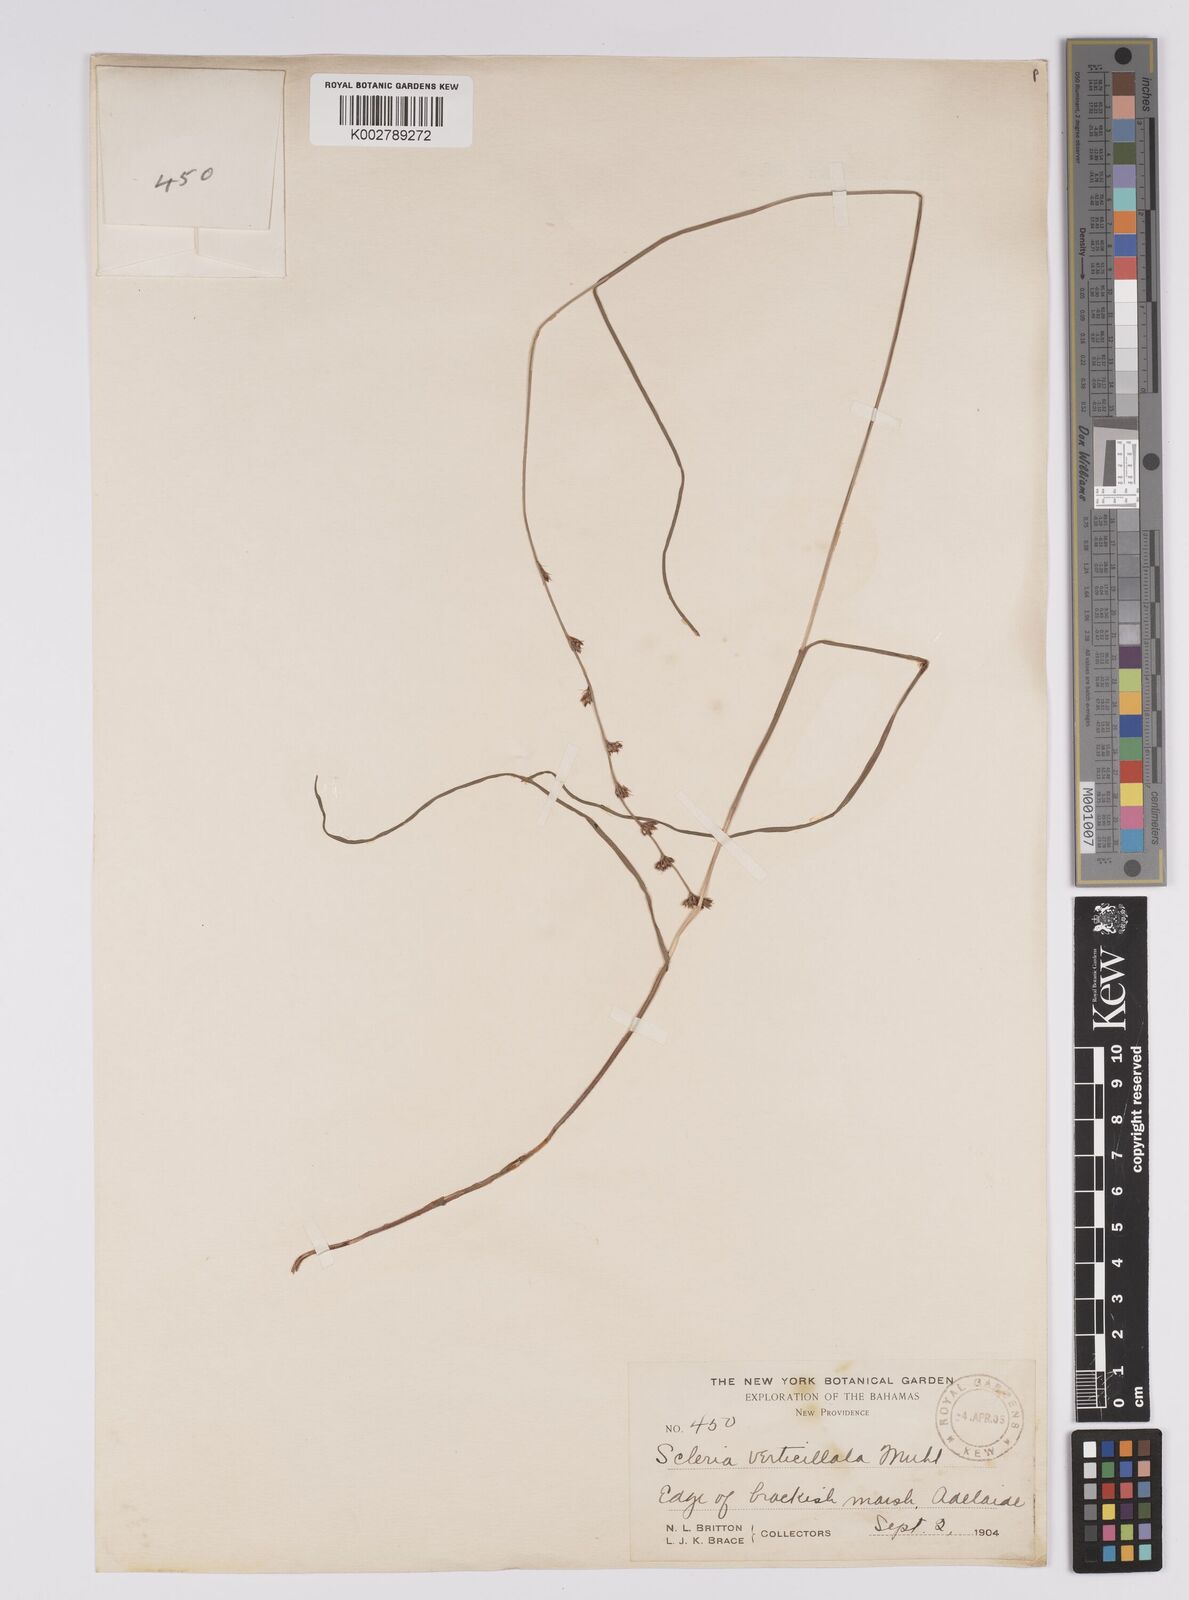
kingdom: Plantae
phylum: Tracheophyta
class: Liliopsida
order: Poales
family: Cyperaceae
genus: Scleria
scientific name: Scleria verticillata
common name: Low nutrush
